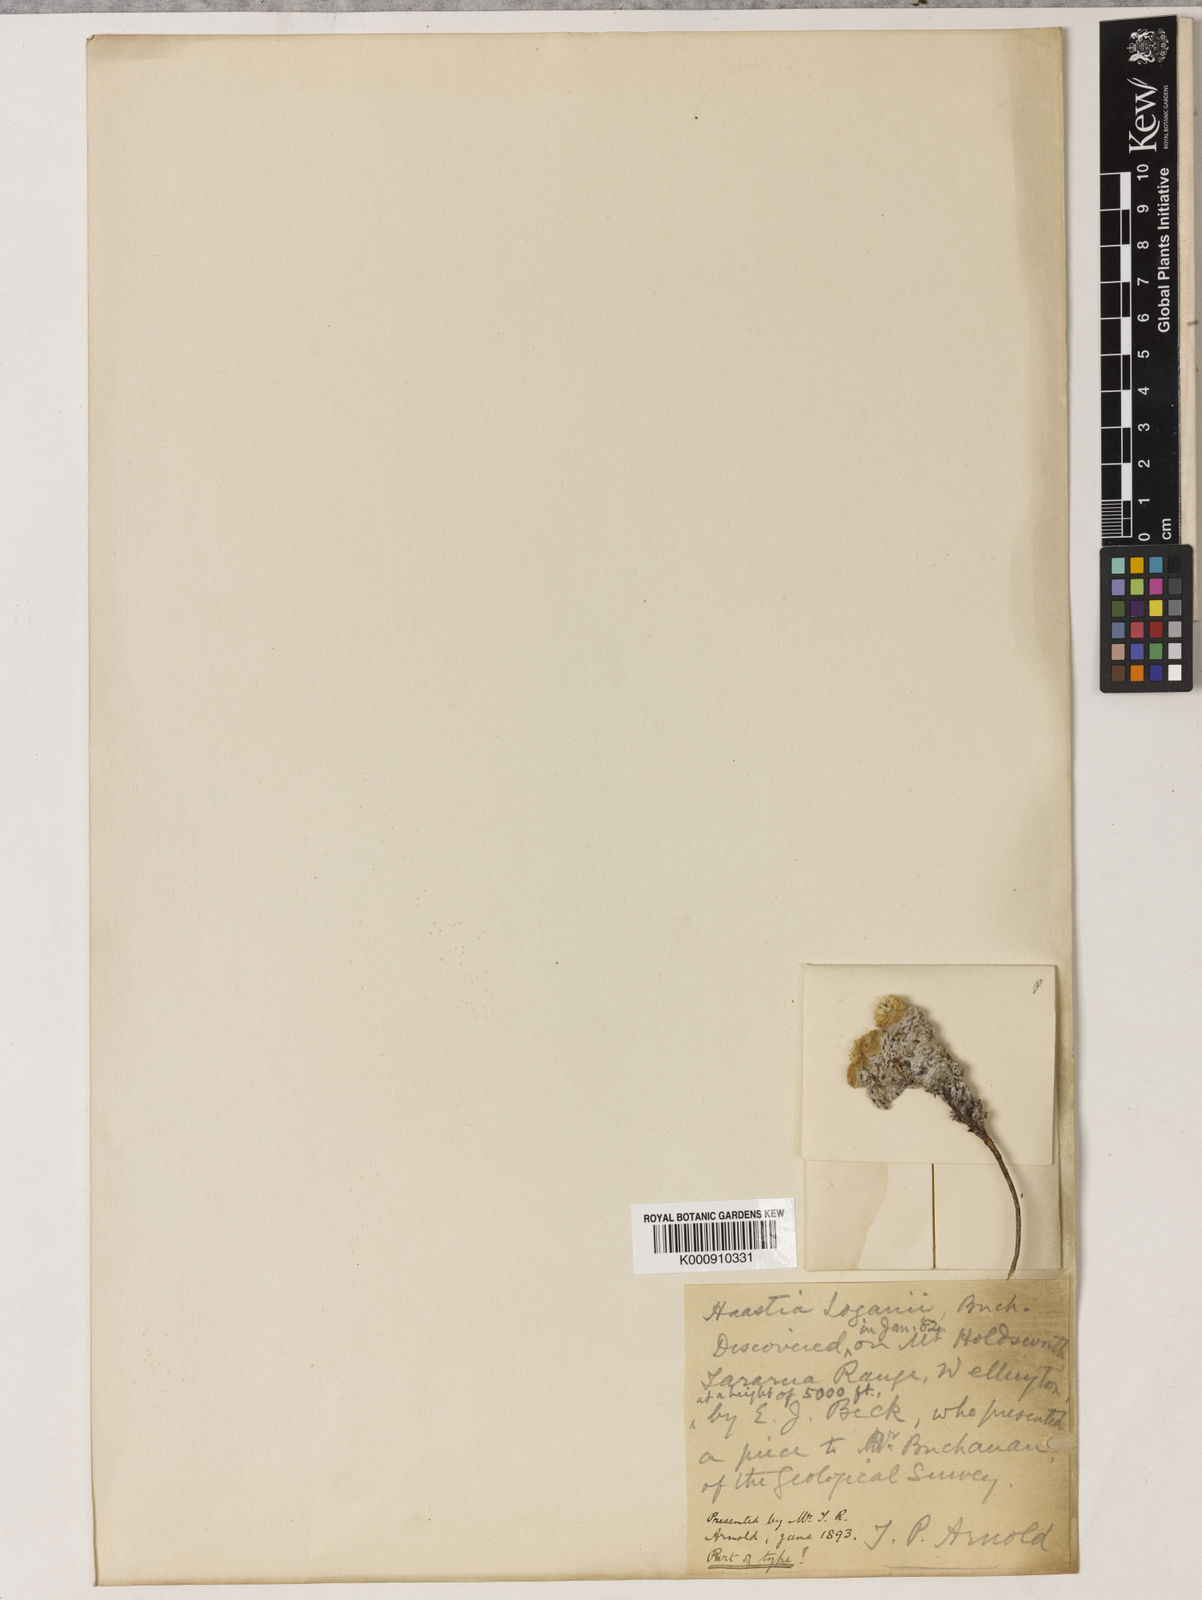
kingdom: Plantae
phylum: Tracheophyta
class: Magnoliopsida
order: Asterales
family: Asteraceae
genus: Raoulia
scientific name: Raoulia loganii
